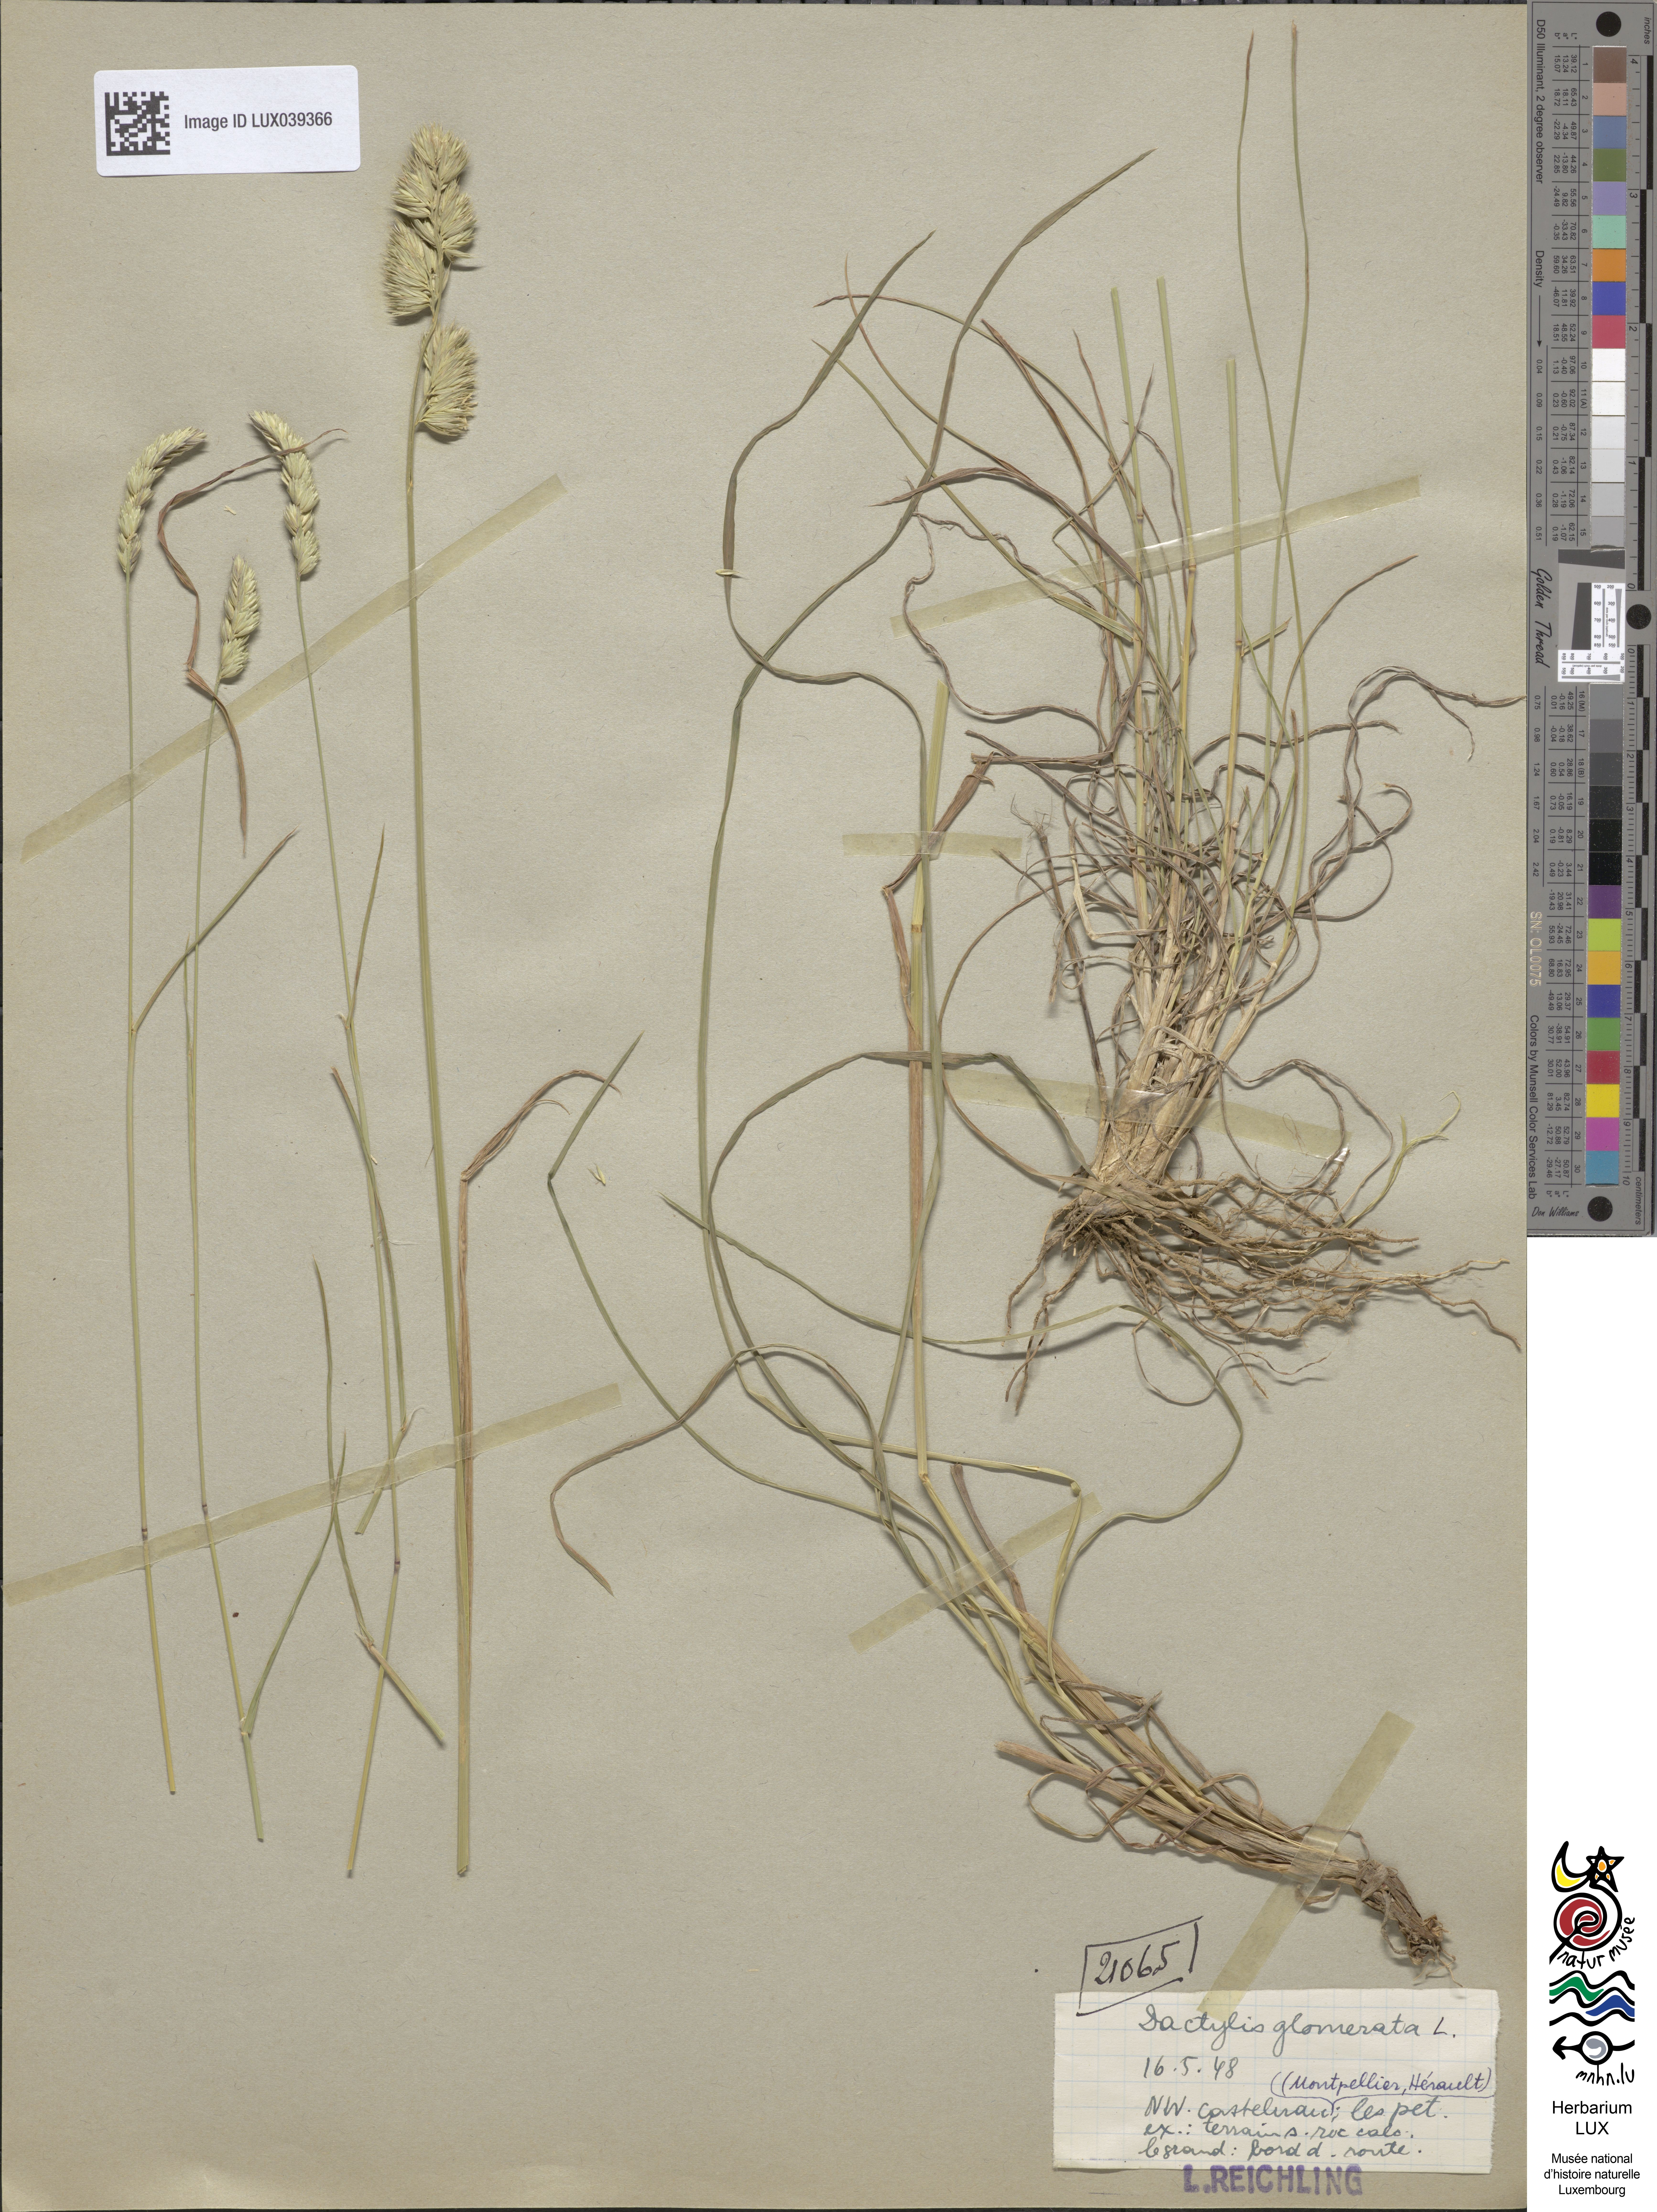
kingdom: Plantae
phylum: Tracheophyta
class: Liliopsida
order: Poales
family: Poaceae
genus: Dactylis
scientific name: Dactylis glomerata
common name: Orchardgrass
